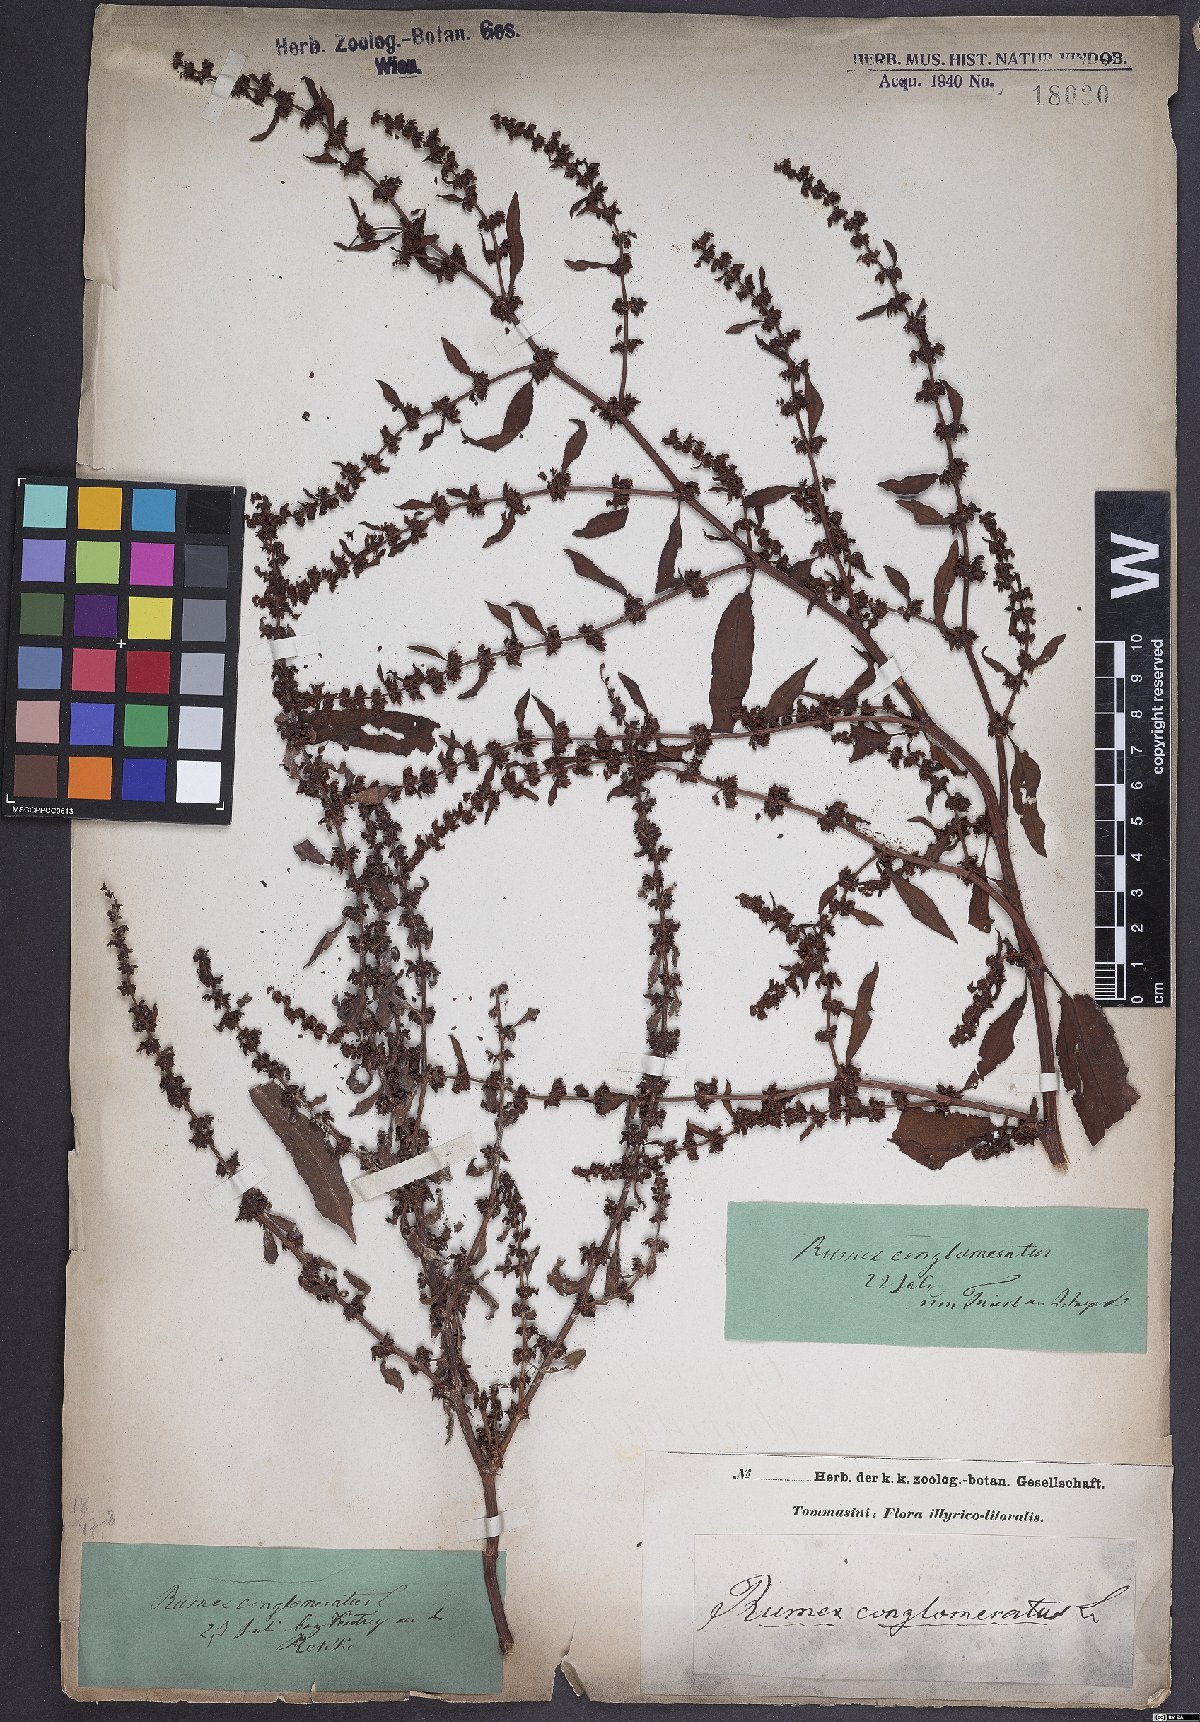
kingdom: Plantae
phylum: Tracheophyta
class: Magnoliopsida
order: Caryophyllales
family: Polygonaceae
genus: Rumex
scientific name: Rumex conglomeratus
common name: Clustered dock
